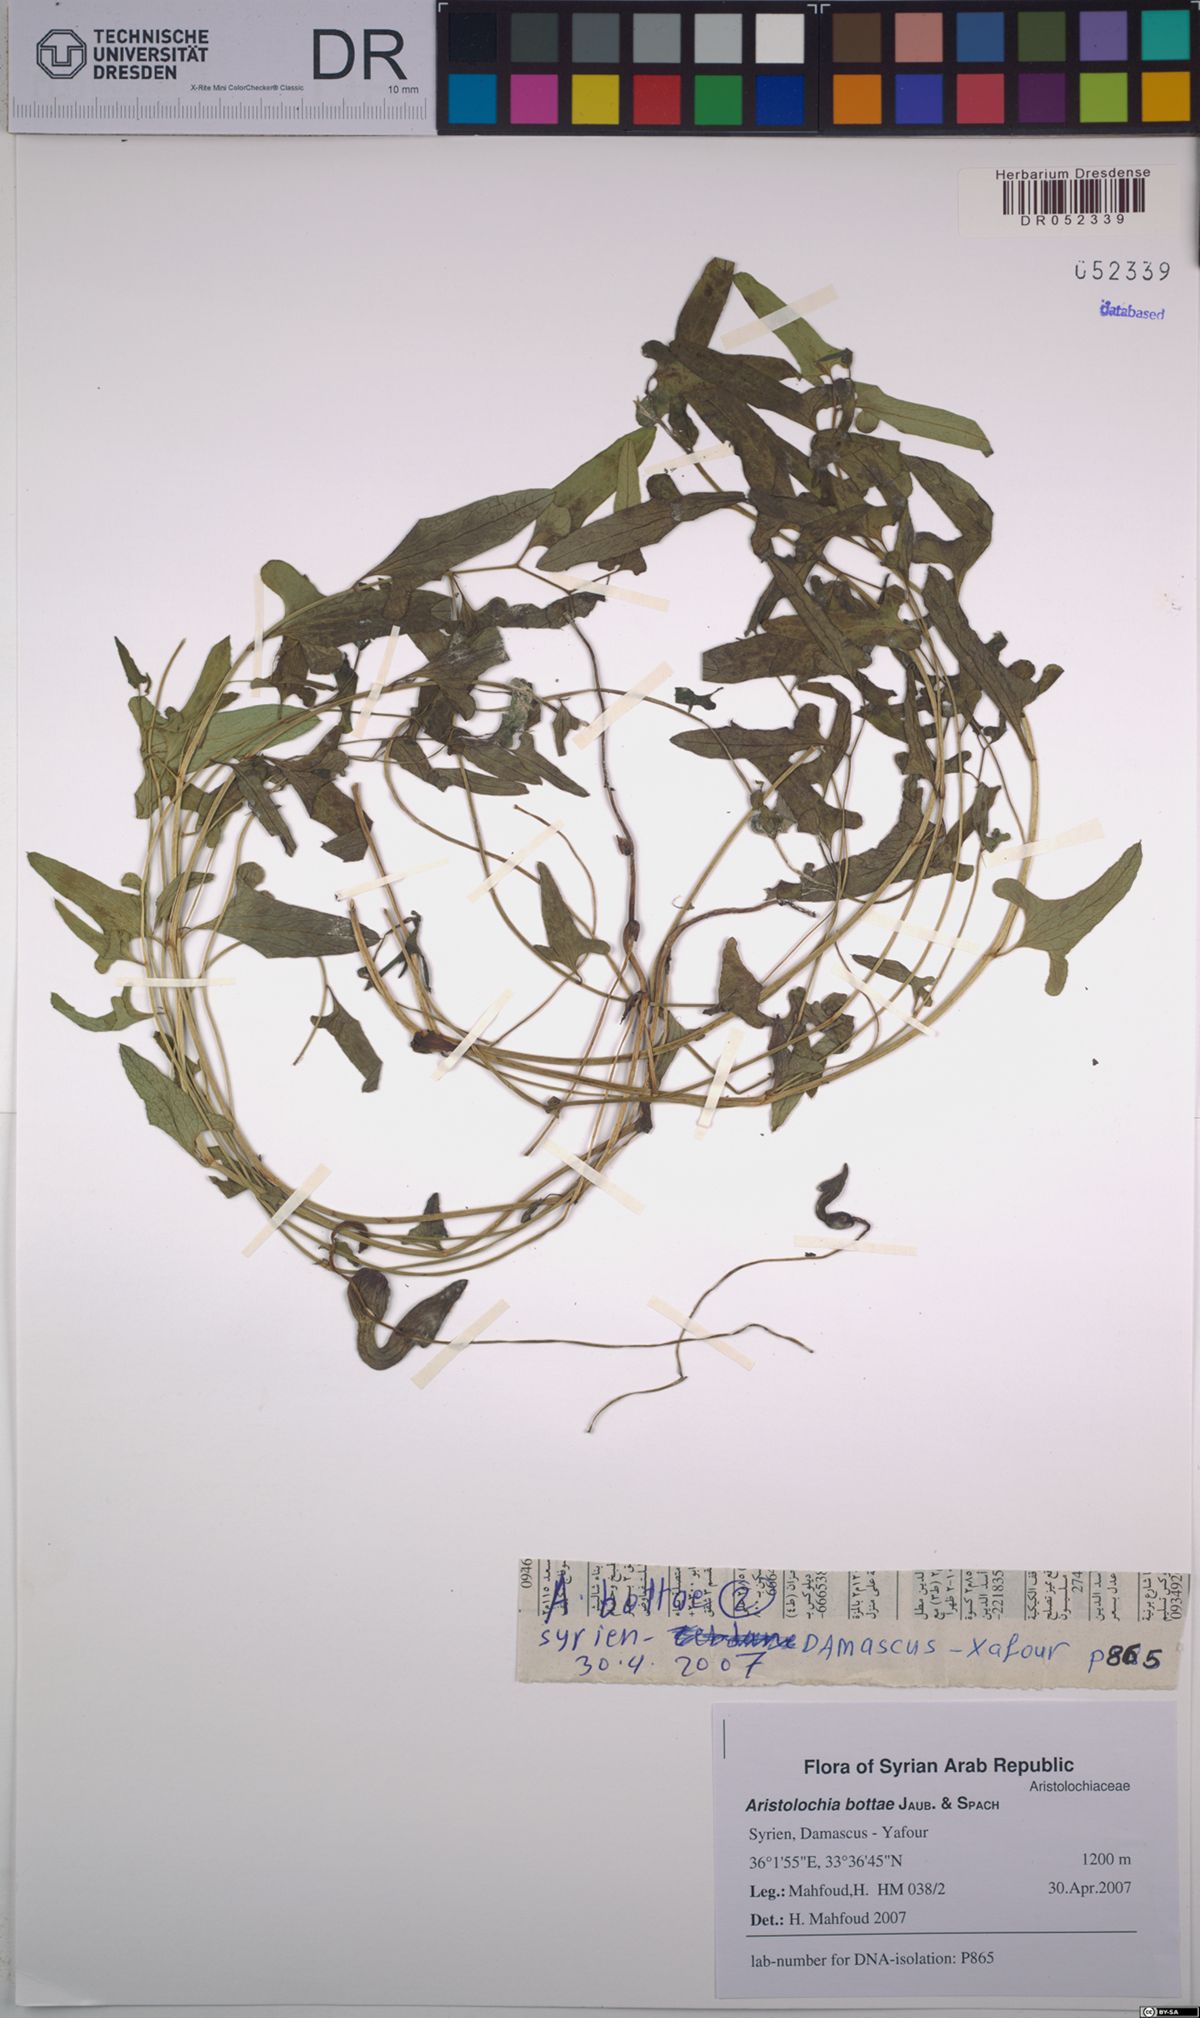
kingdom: Plantae
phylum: Tracheophyta
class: Magnoliopsida
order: Piperales
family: Aristolochiaceae
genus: Aristolochia
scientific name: Aristolochia bottae
